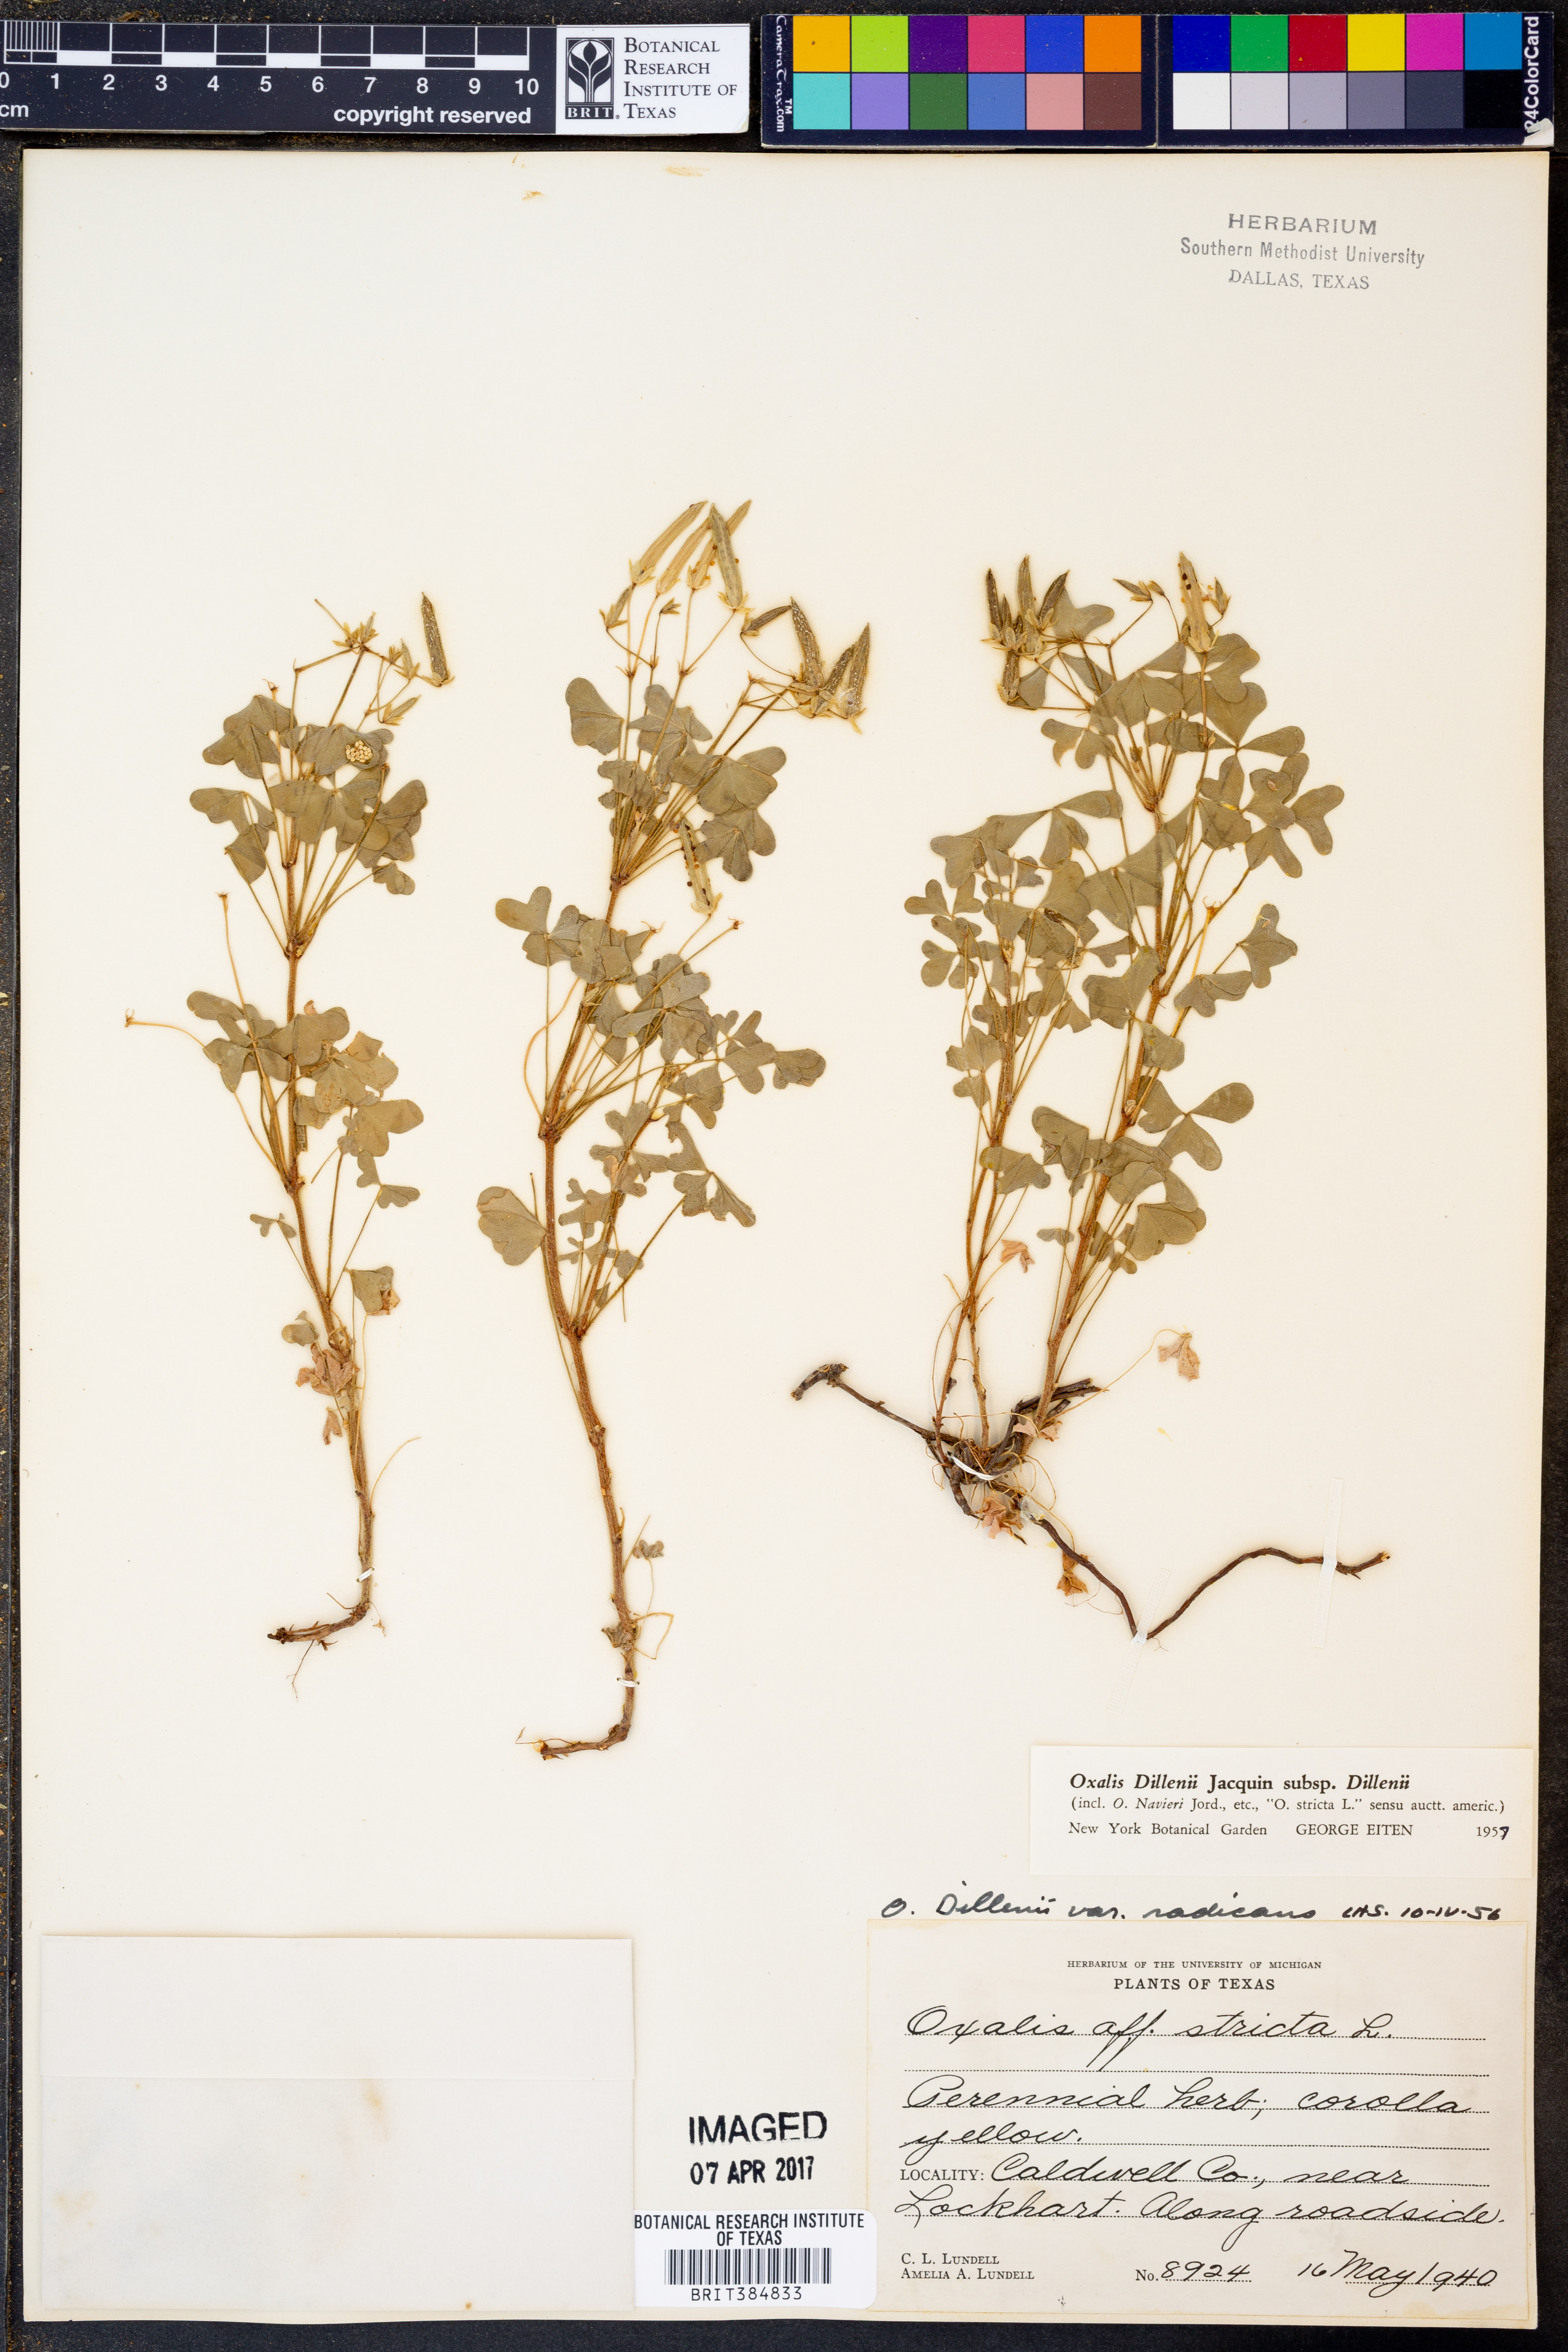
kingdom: Plantae
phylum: Tracheophyta
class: Magnoliopsida
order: Oxalidales
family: Oxalidaceae
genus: Oxalis
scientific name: Oxalis dillenii
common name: Sussex yellow-sorrel
